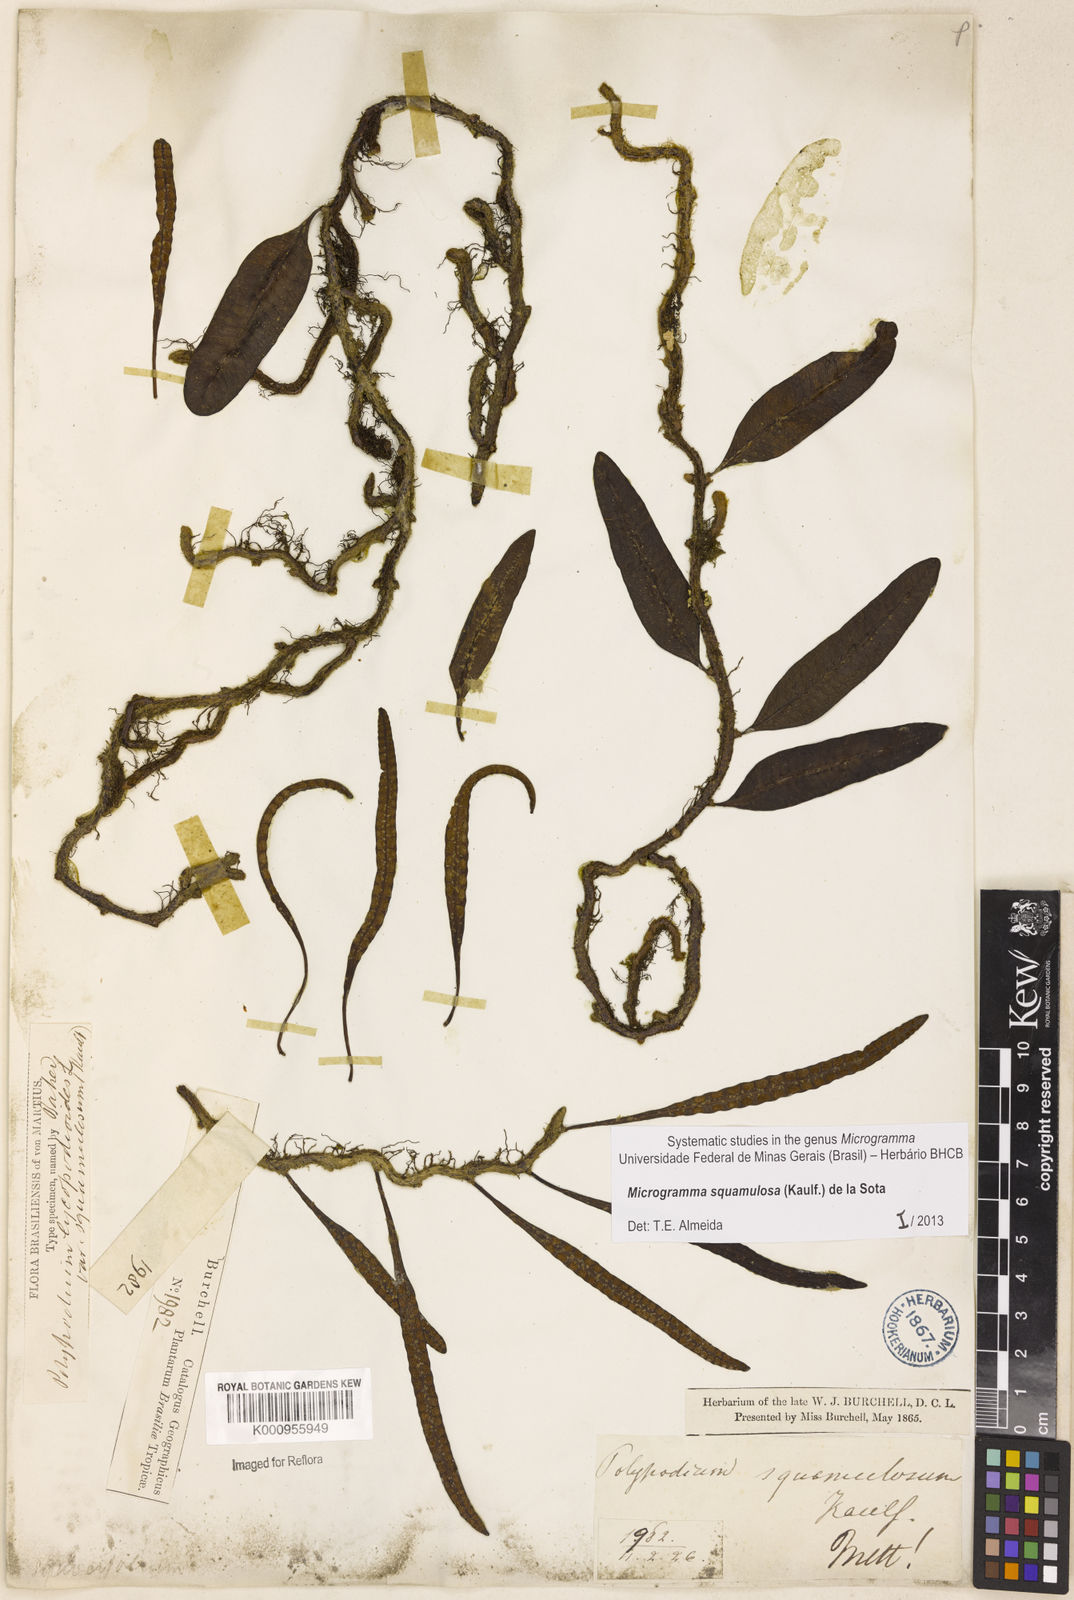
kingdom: Plantae
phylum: Tracheophyta
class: Polypodiopsida
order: Polypodiales
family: Polypodiaceae
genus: Microgramma
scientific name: Microgramma squamulosa
